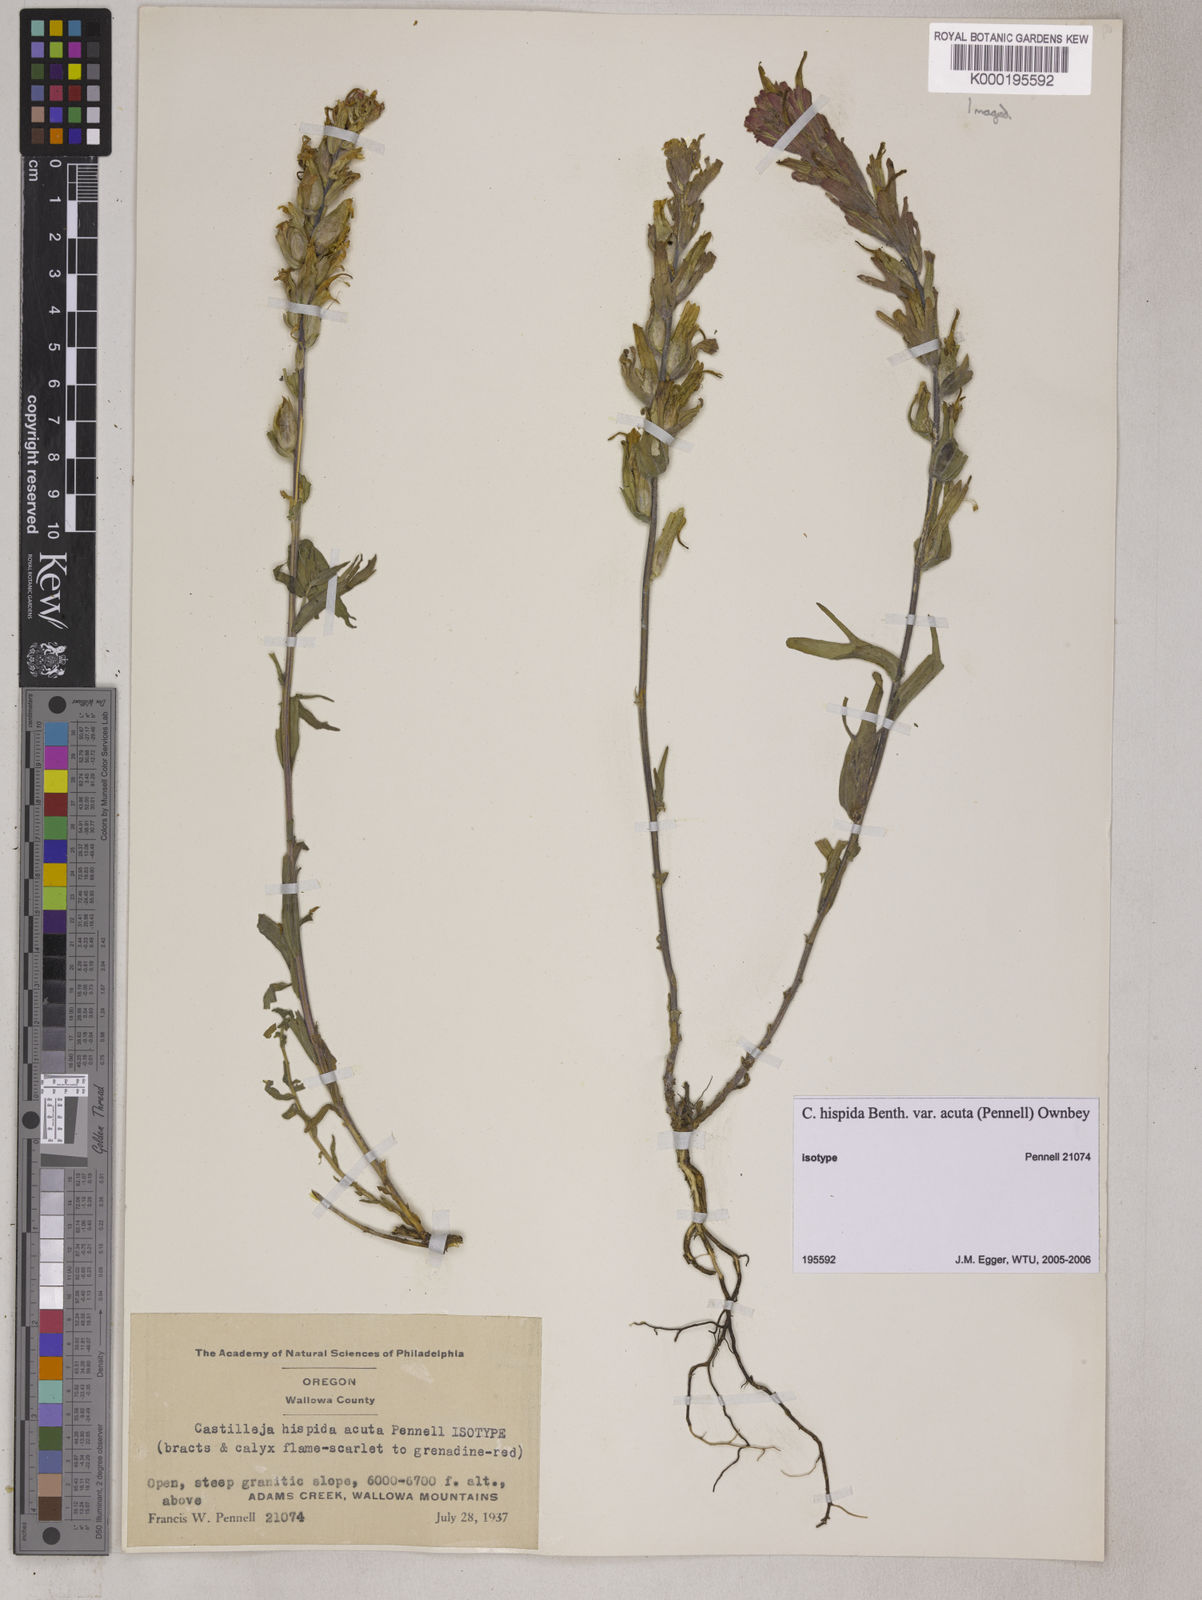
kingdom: Plantae
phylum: Tracheophyta
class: Magnoliopsida
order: Lamiales
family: Orobanchaceae
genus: Castilleja
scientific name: Castilleja hispida
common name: Bristly paintbrush
